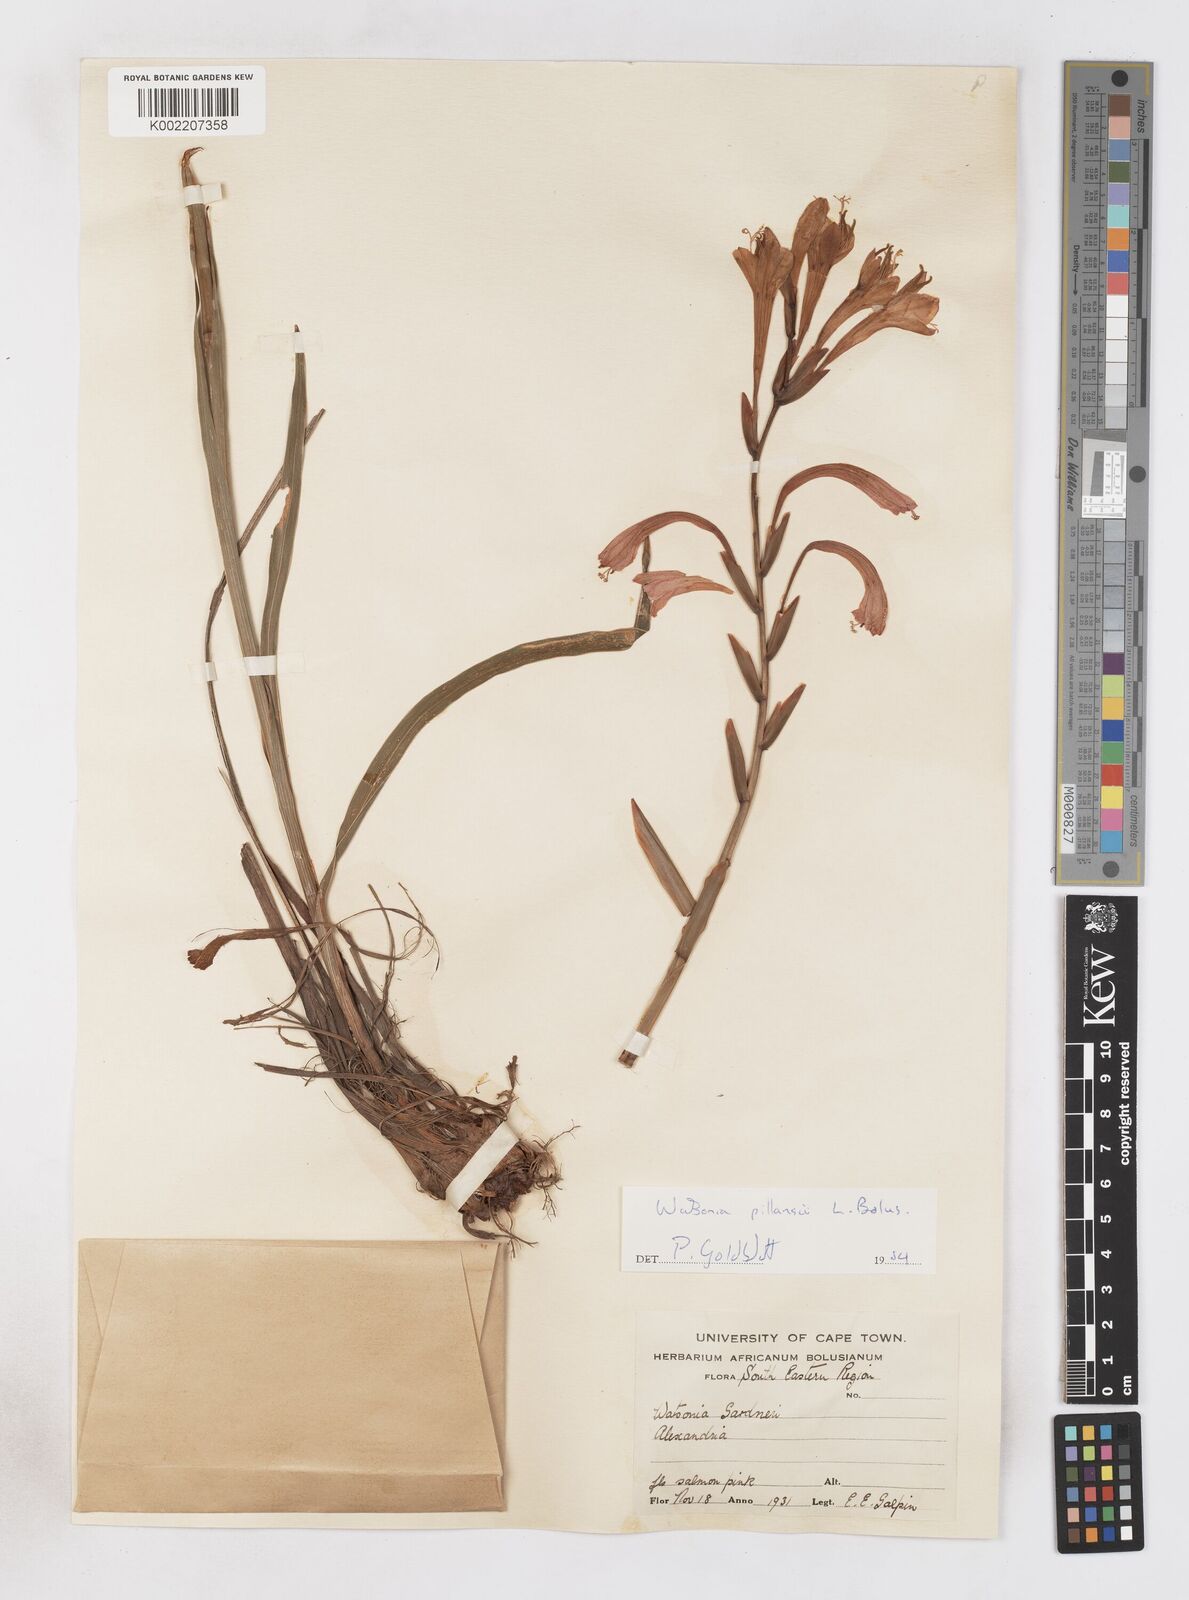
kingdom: Plantae
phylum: Tracheophyta
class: Liliopsida
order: Asparagales
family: Iridaceae
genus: Watsonia
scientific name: Watsonia pillansii
